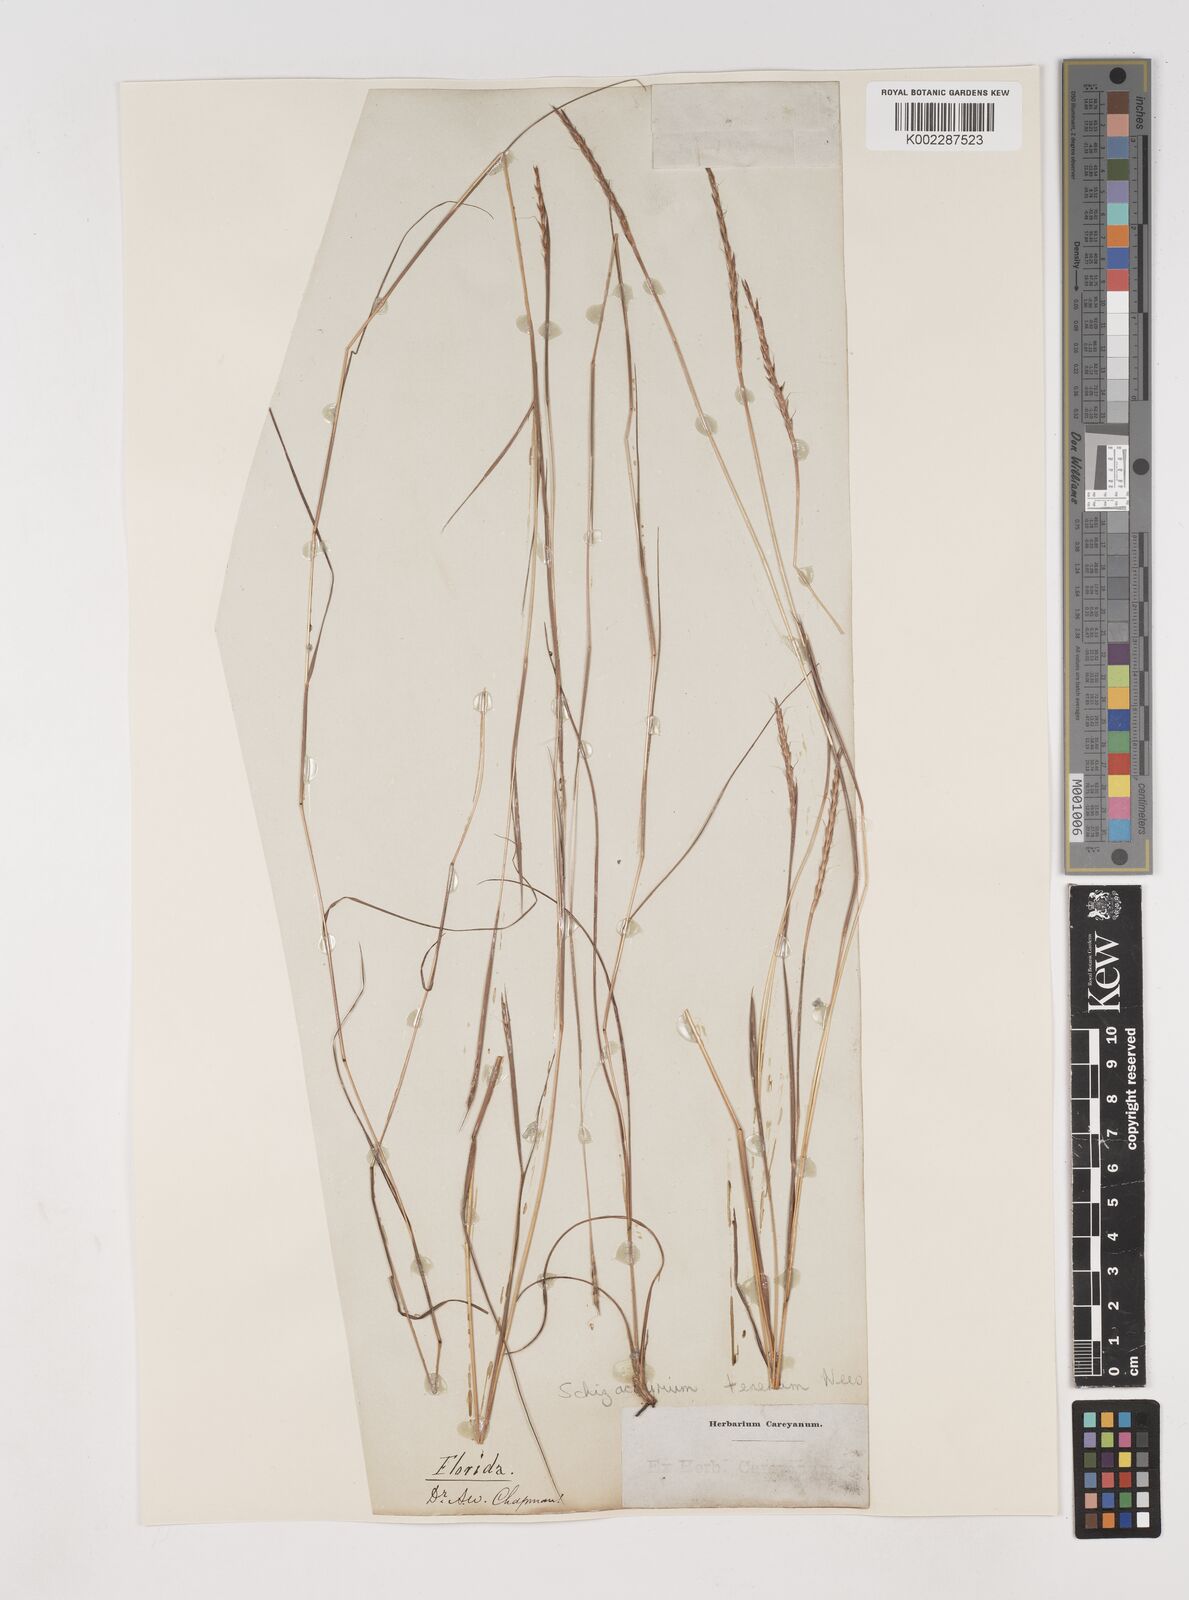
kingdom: Plantae
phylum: Tracheophyta
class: Liliopsida
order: Poales
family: Poaceae
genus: Andropogon
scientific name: Andropogon tener
